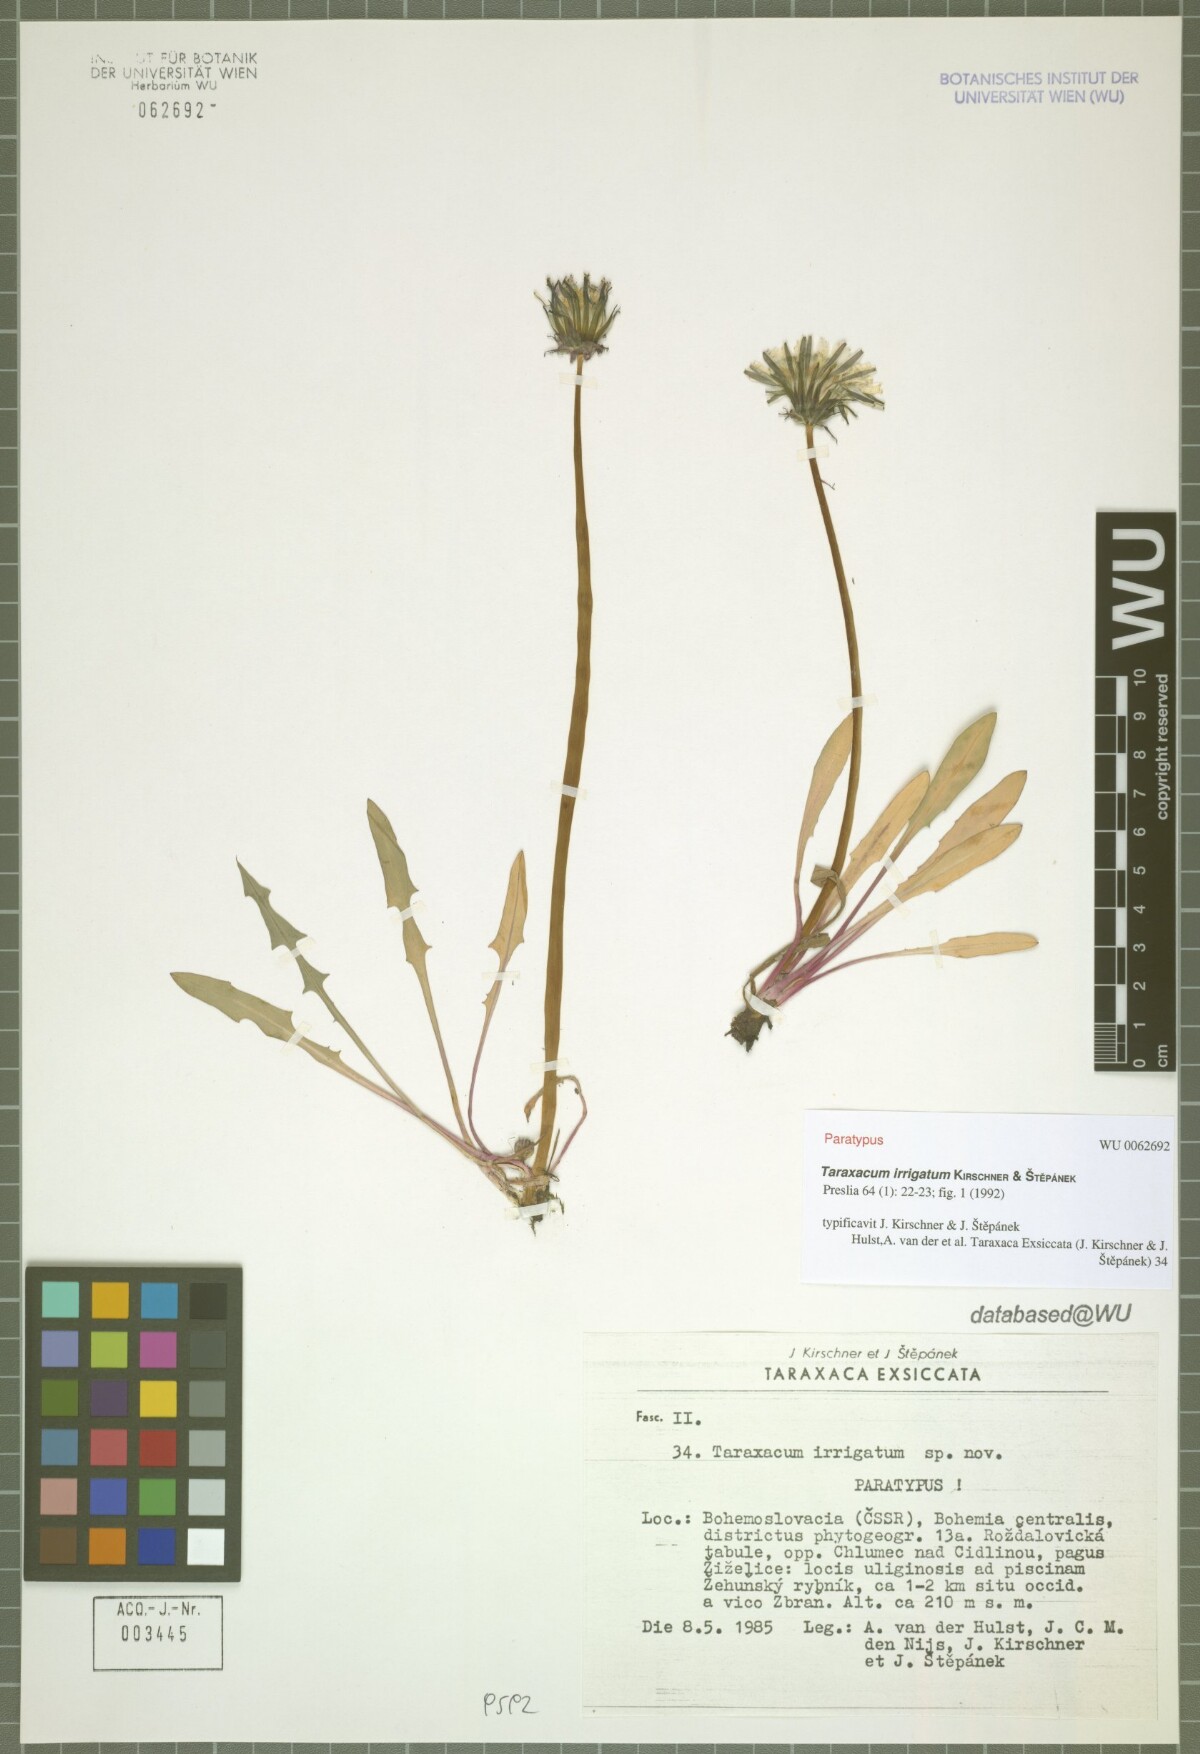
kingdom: Plantae
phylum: Tracheophyta
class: Magnoliopsida
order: Asterales
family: Asteraceae
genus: Taraxacum
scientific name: Taraxacum pseudopalustre
